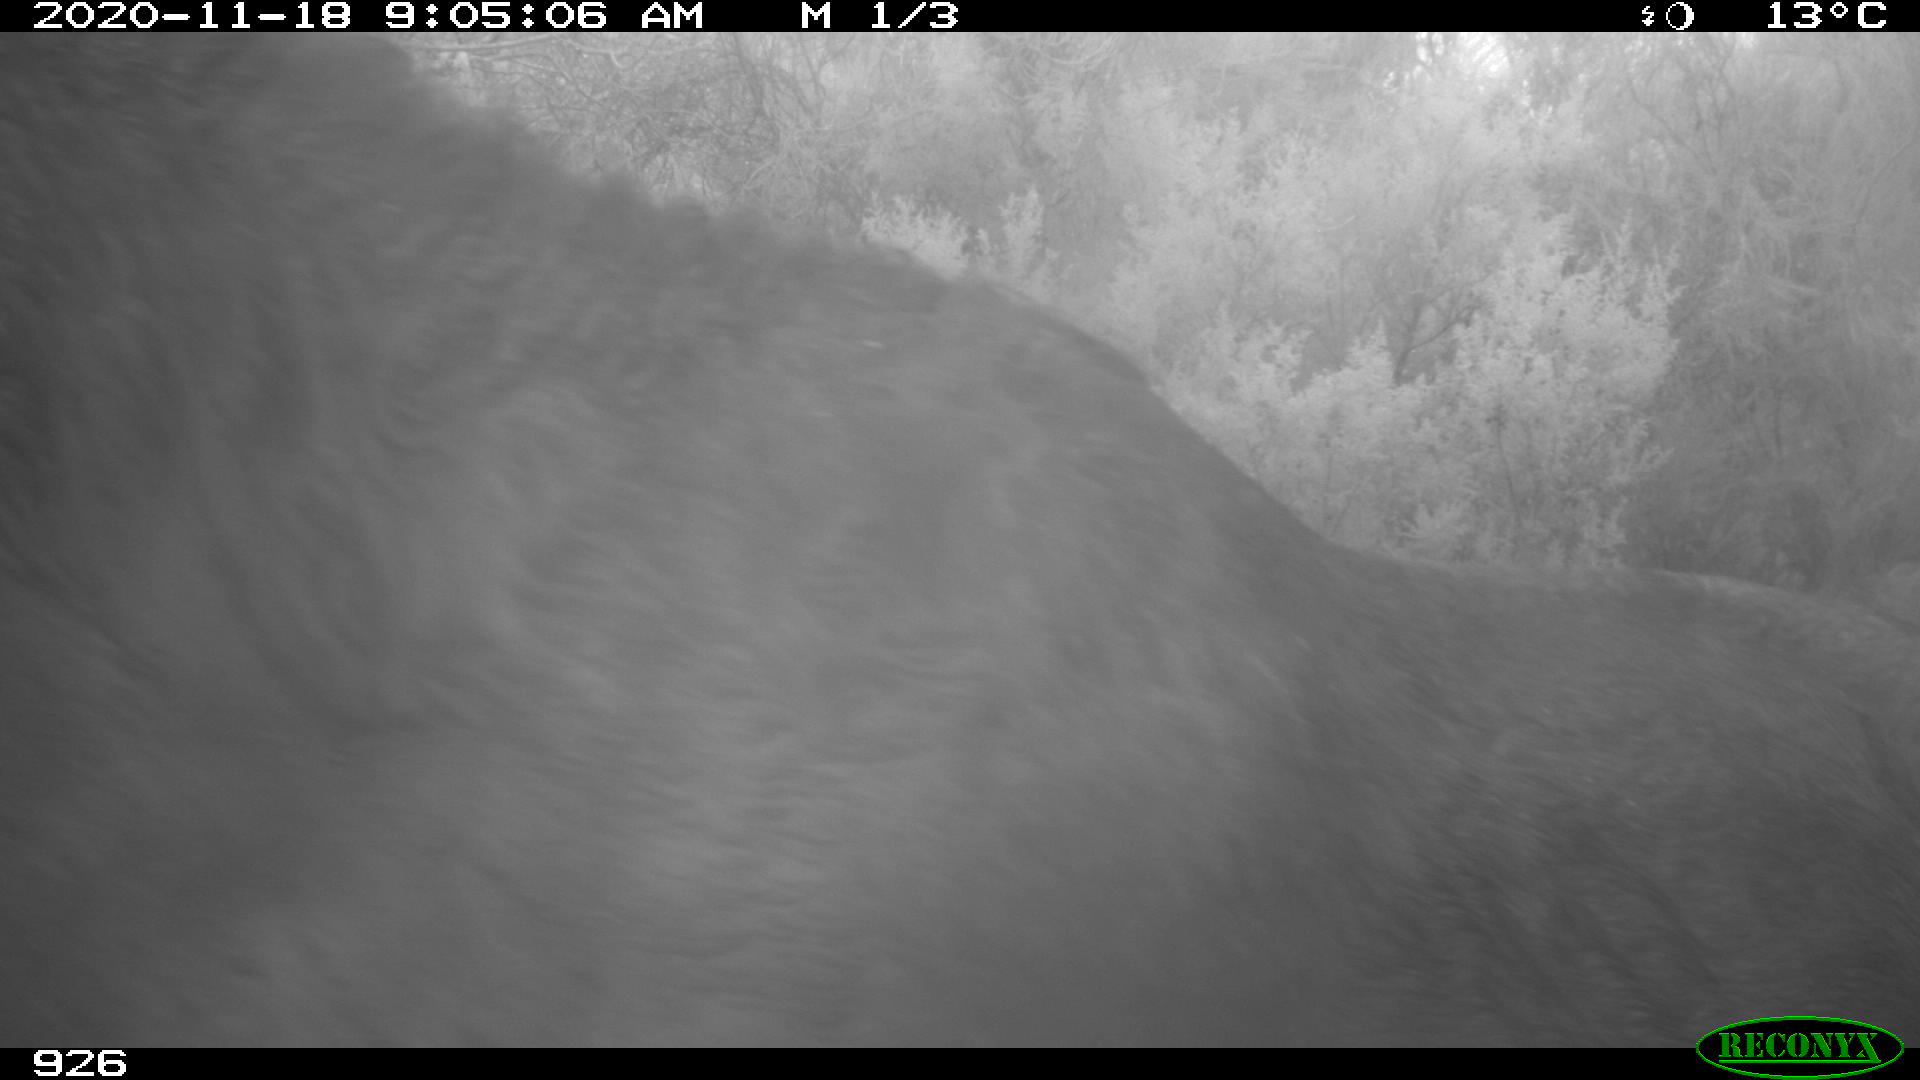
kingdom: Animalia
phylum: Chordata
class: Mammalia
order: Perissodactyla
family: Equidae
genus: Equus
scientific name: Equus caballus
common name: Horse
